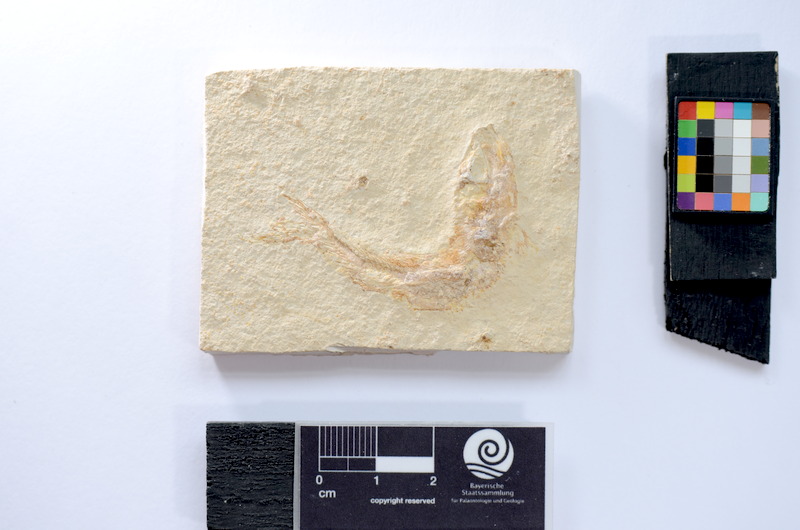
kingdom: Animalia
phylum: Chordata
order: Salmoniformes
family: Orthogonikleithridae
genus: Leptolepides
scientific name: Leptolepides sprattiformis
